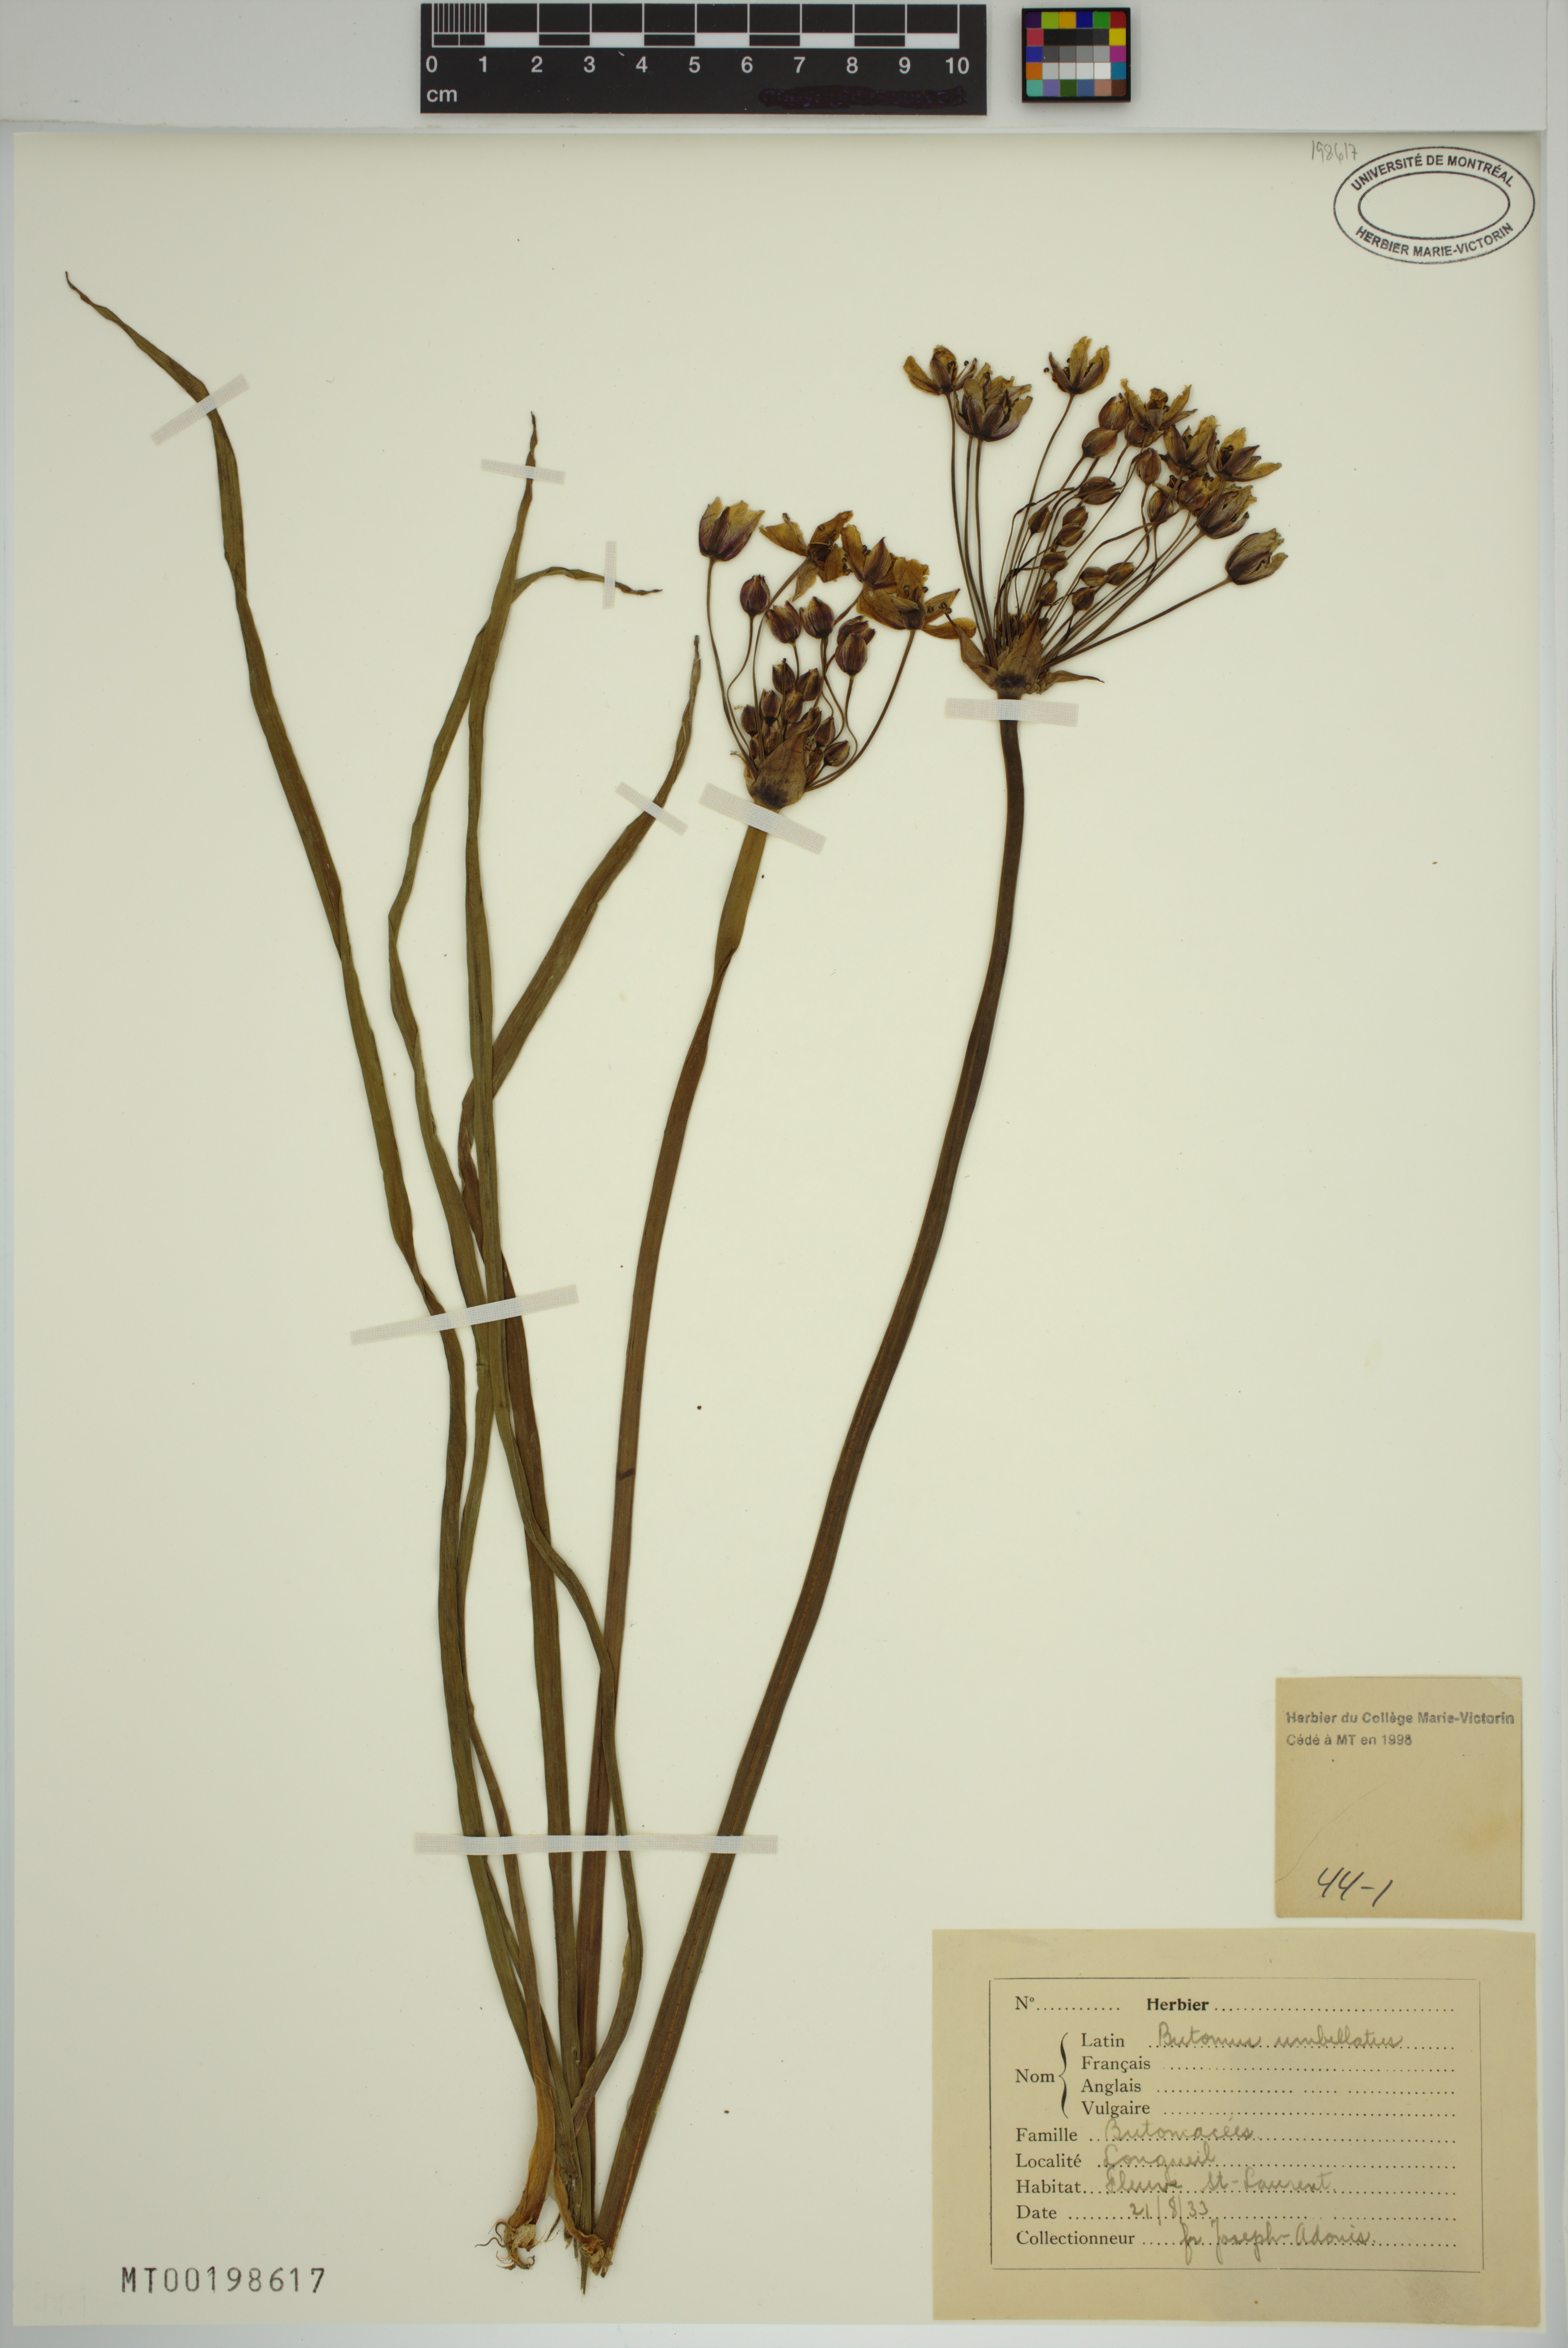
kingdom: Plantae
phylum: Tracheophyta
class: Liliopsida
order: Alismatales
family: Butomaceae
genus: Butomus
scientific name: Butomus umbellatus
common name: Flowering-rush
